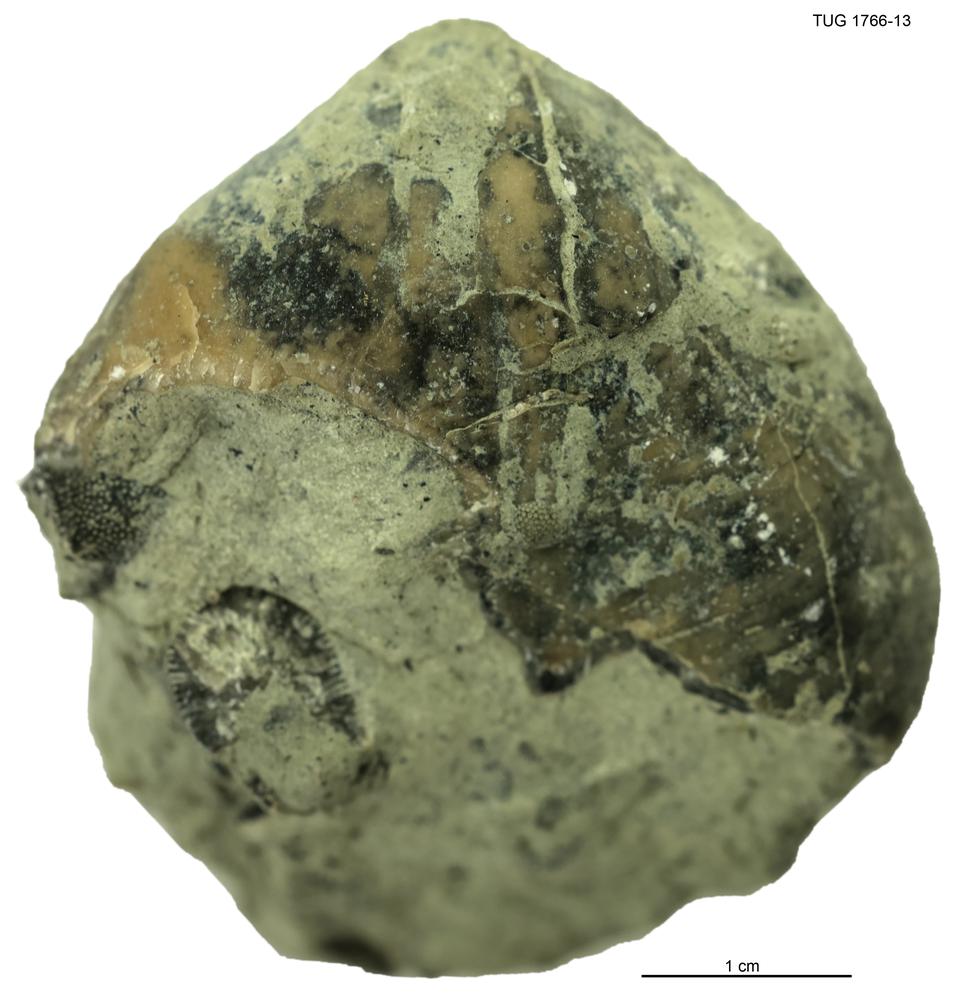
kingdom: Animalia
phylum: Brachiopoda
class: Rhynchonellata
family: Porambonitidae
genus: Porambonites
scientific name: Porambonites
